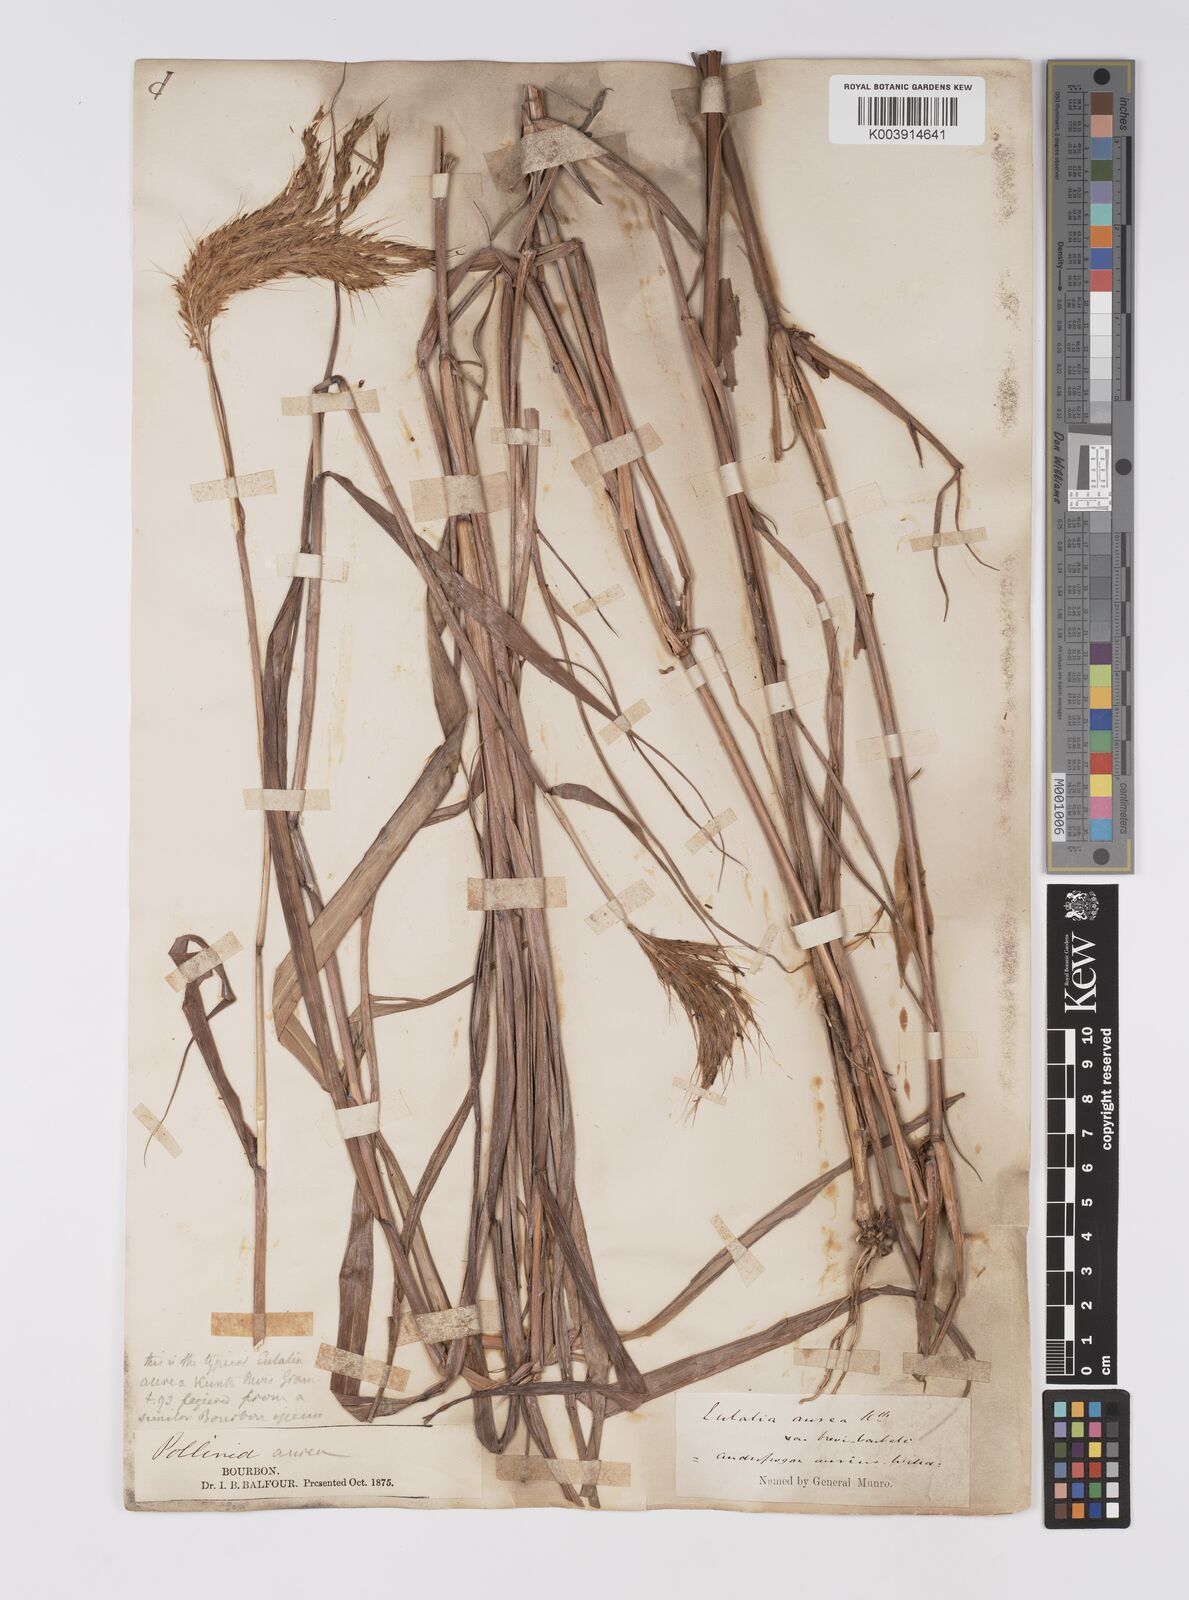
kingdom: Plantae
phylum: Tracheophyta
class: Liliopsida
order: Poales
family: Poaceae
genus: Eulalia
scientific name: Eulalia aurea
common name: Silky browntop
